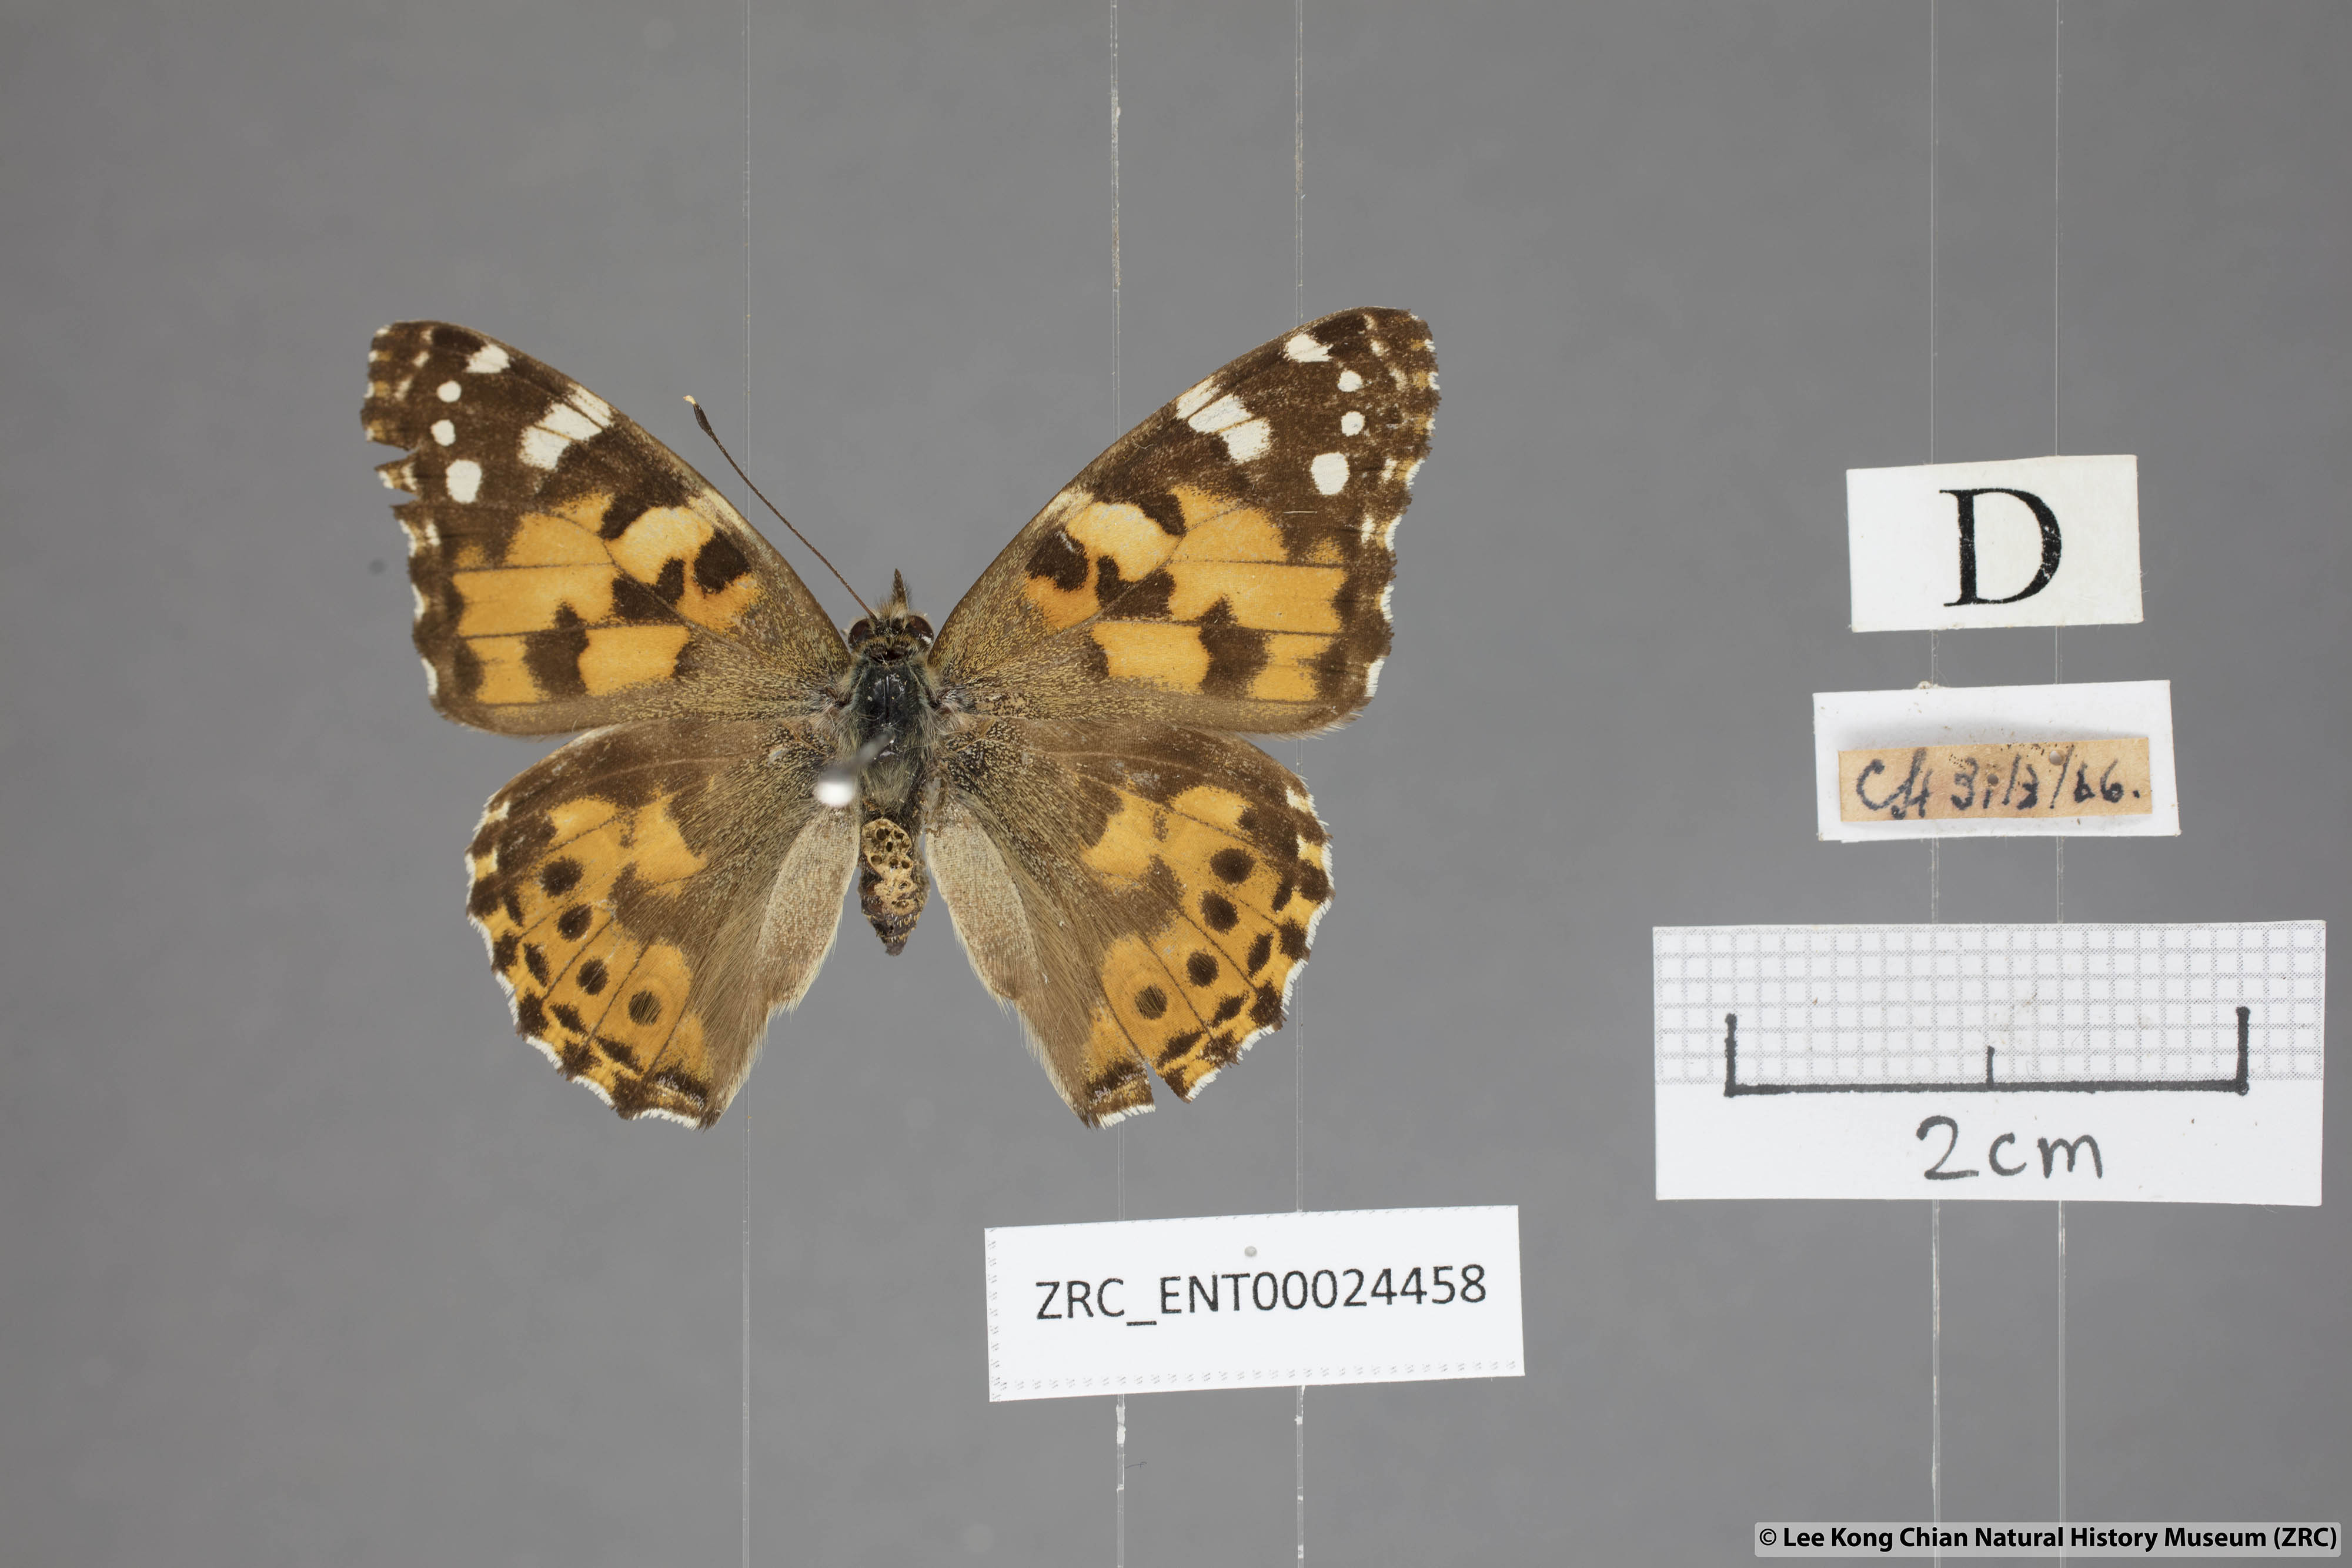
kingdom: Animalia
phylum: Arthropoda
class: Insecta
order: Lepidoptera
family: Nymphalidae
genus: Vanessa
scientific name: Vanessa cardui
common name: Painted lady
